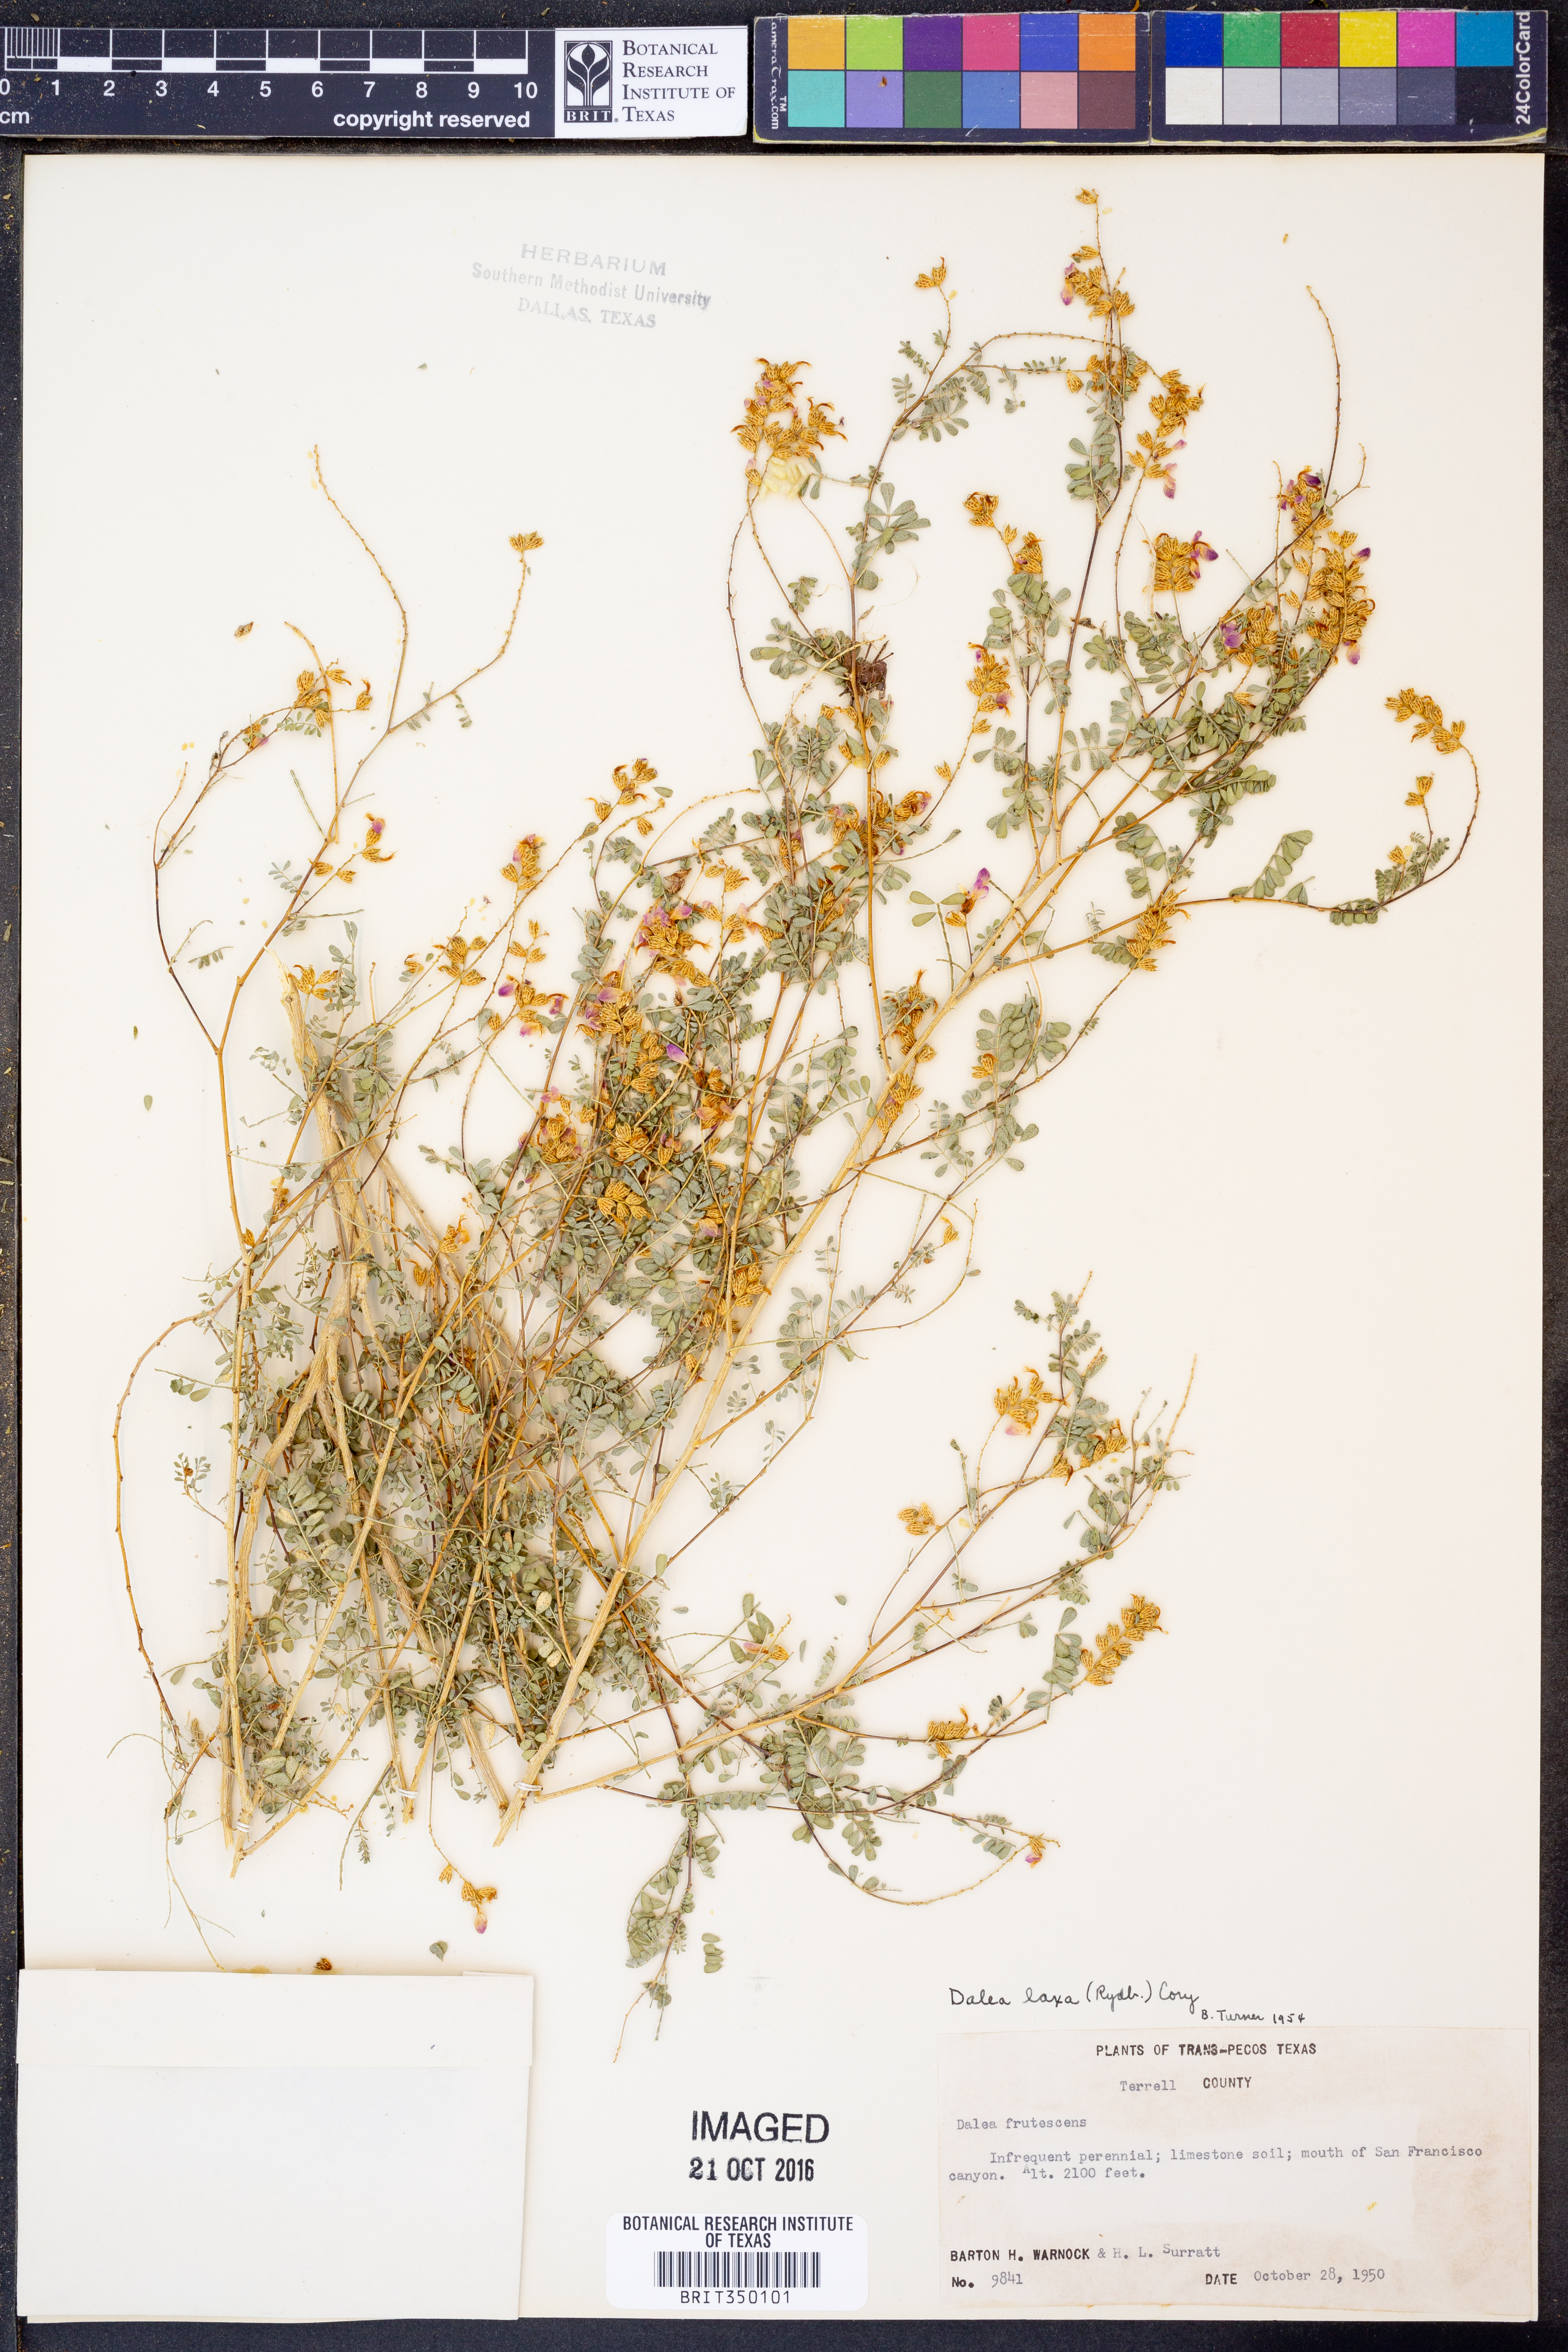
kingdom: Plantae
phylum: Tracheophyta
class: Magnoliopsida
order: Fabales
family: Fabaceae
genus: Dalea
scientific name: Dalea frutescens
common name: Black dalea
